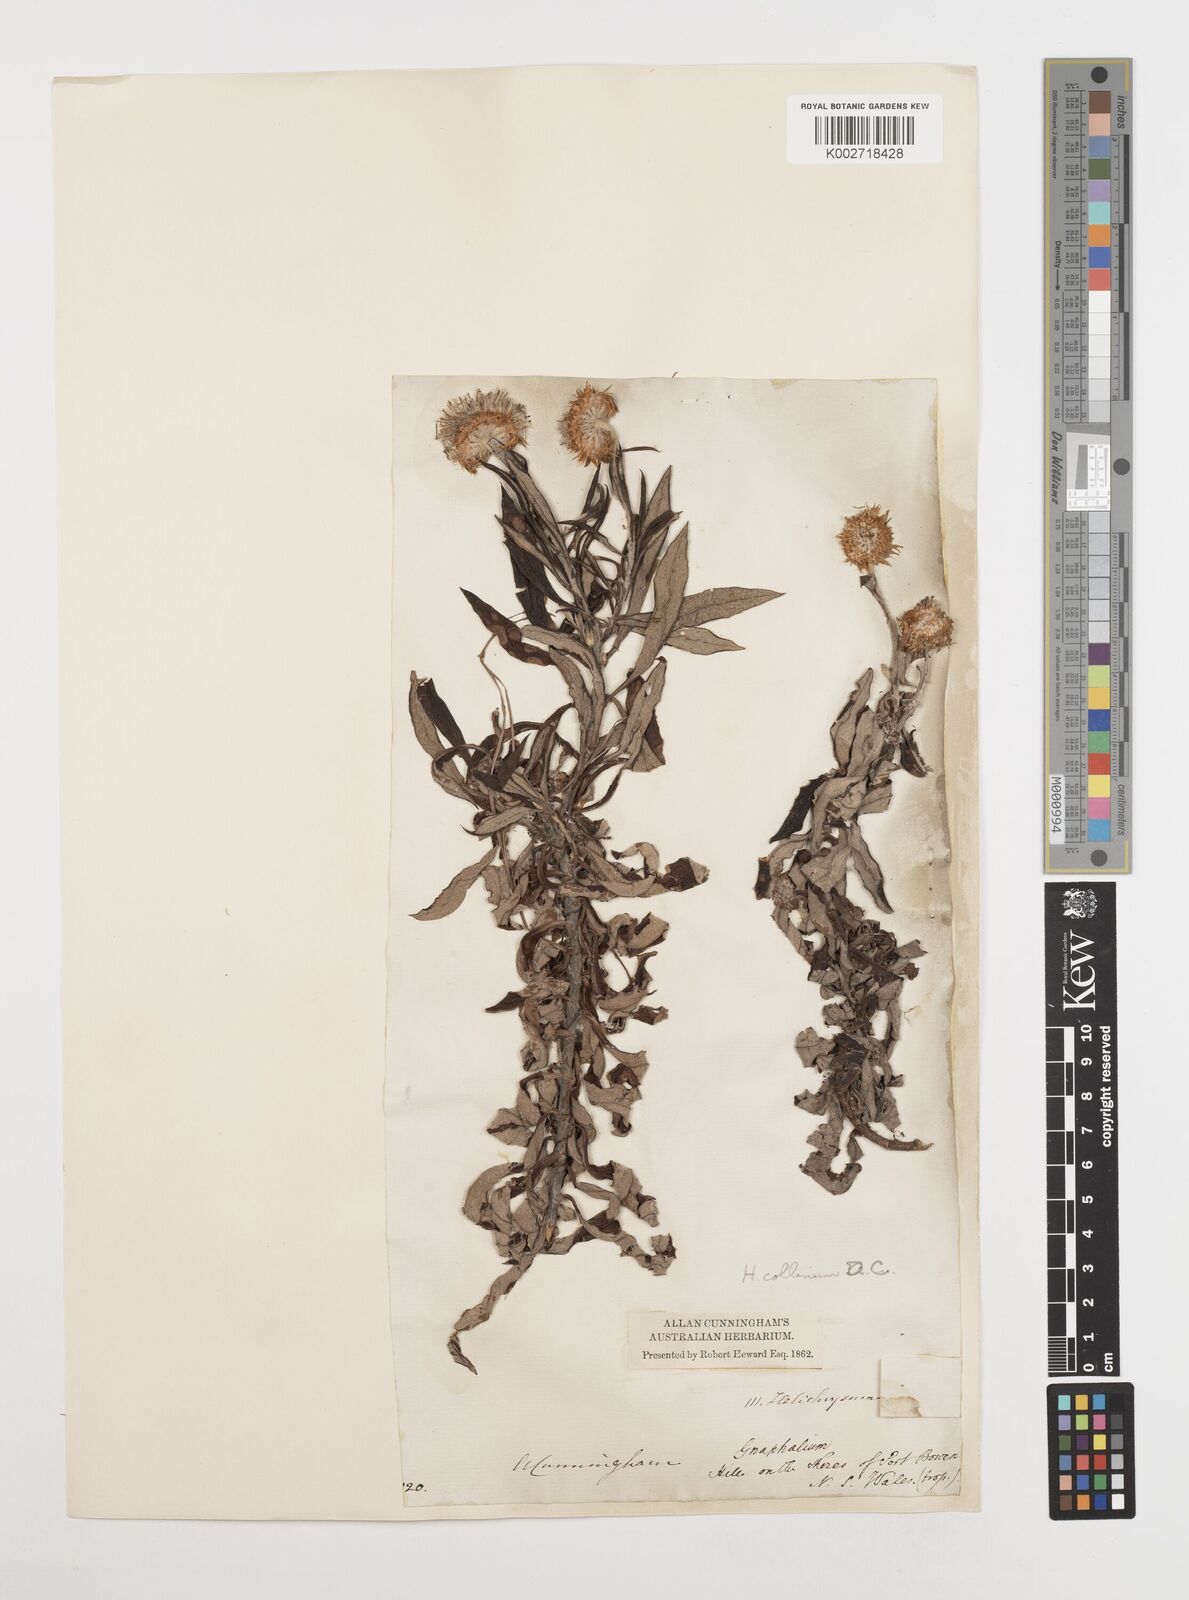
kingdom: Plantae
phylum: Tracheophyta
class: Magnoliopsida
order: Asterales
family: Asteraceae
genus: Coronidium
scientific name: Coronidium rupicola
